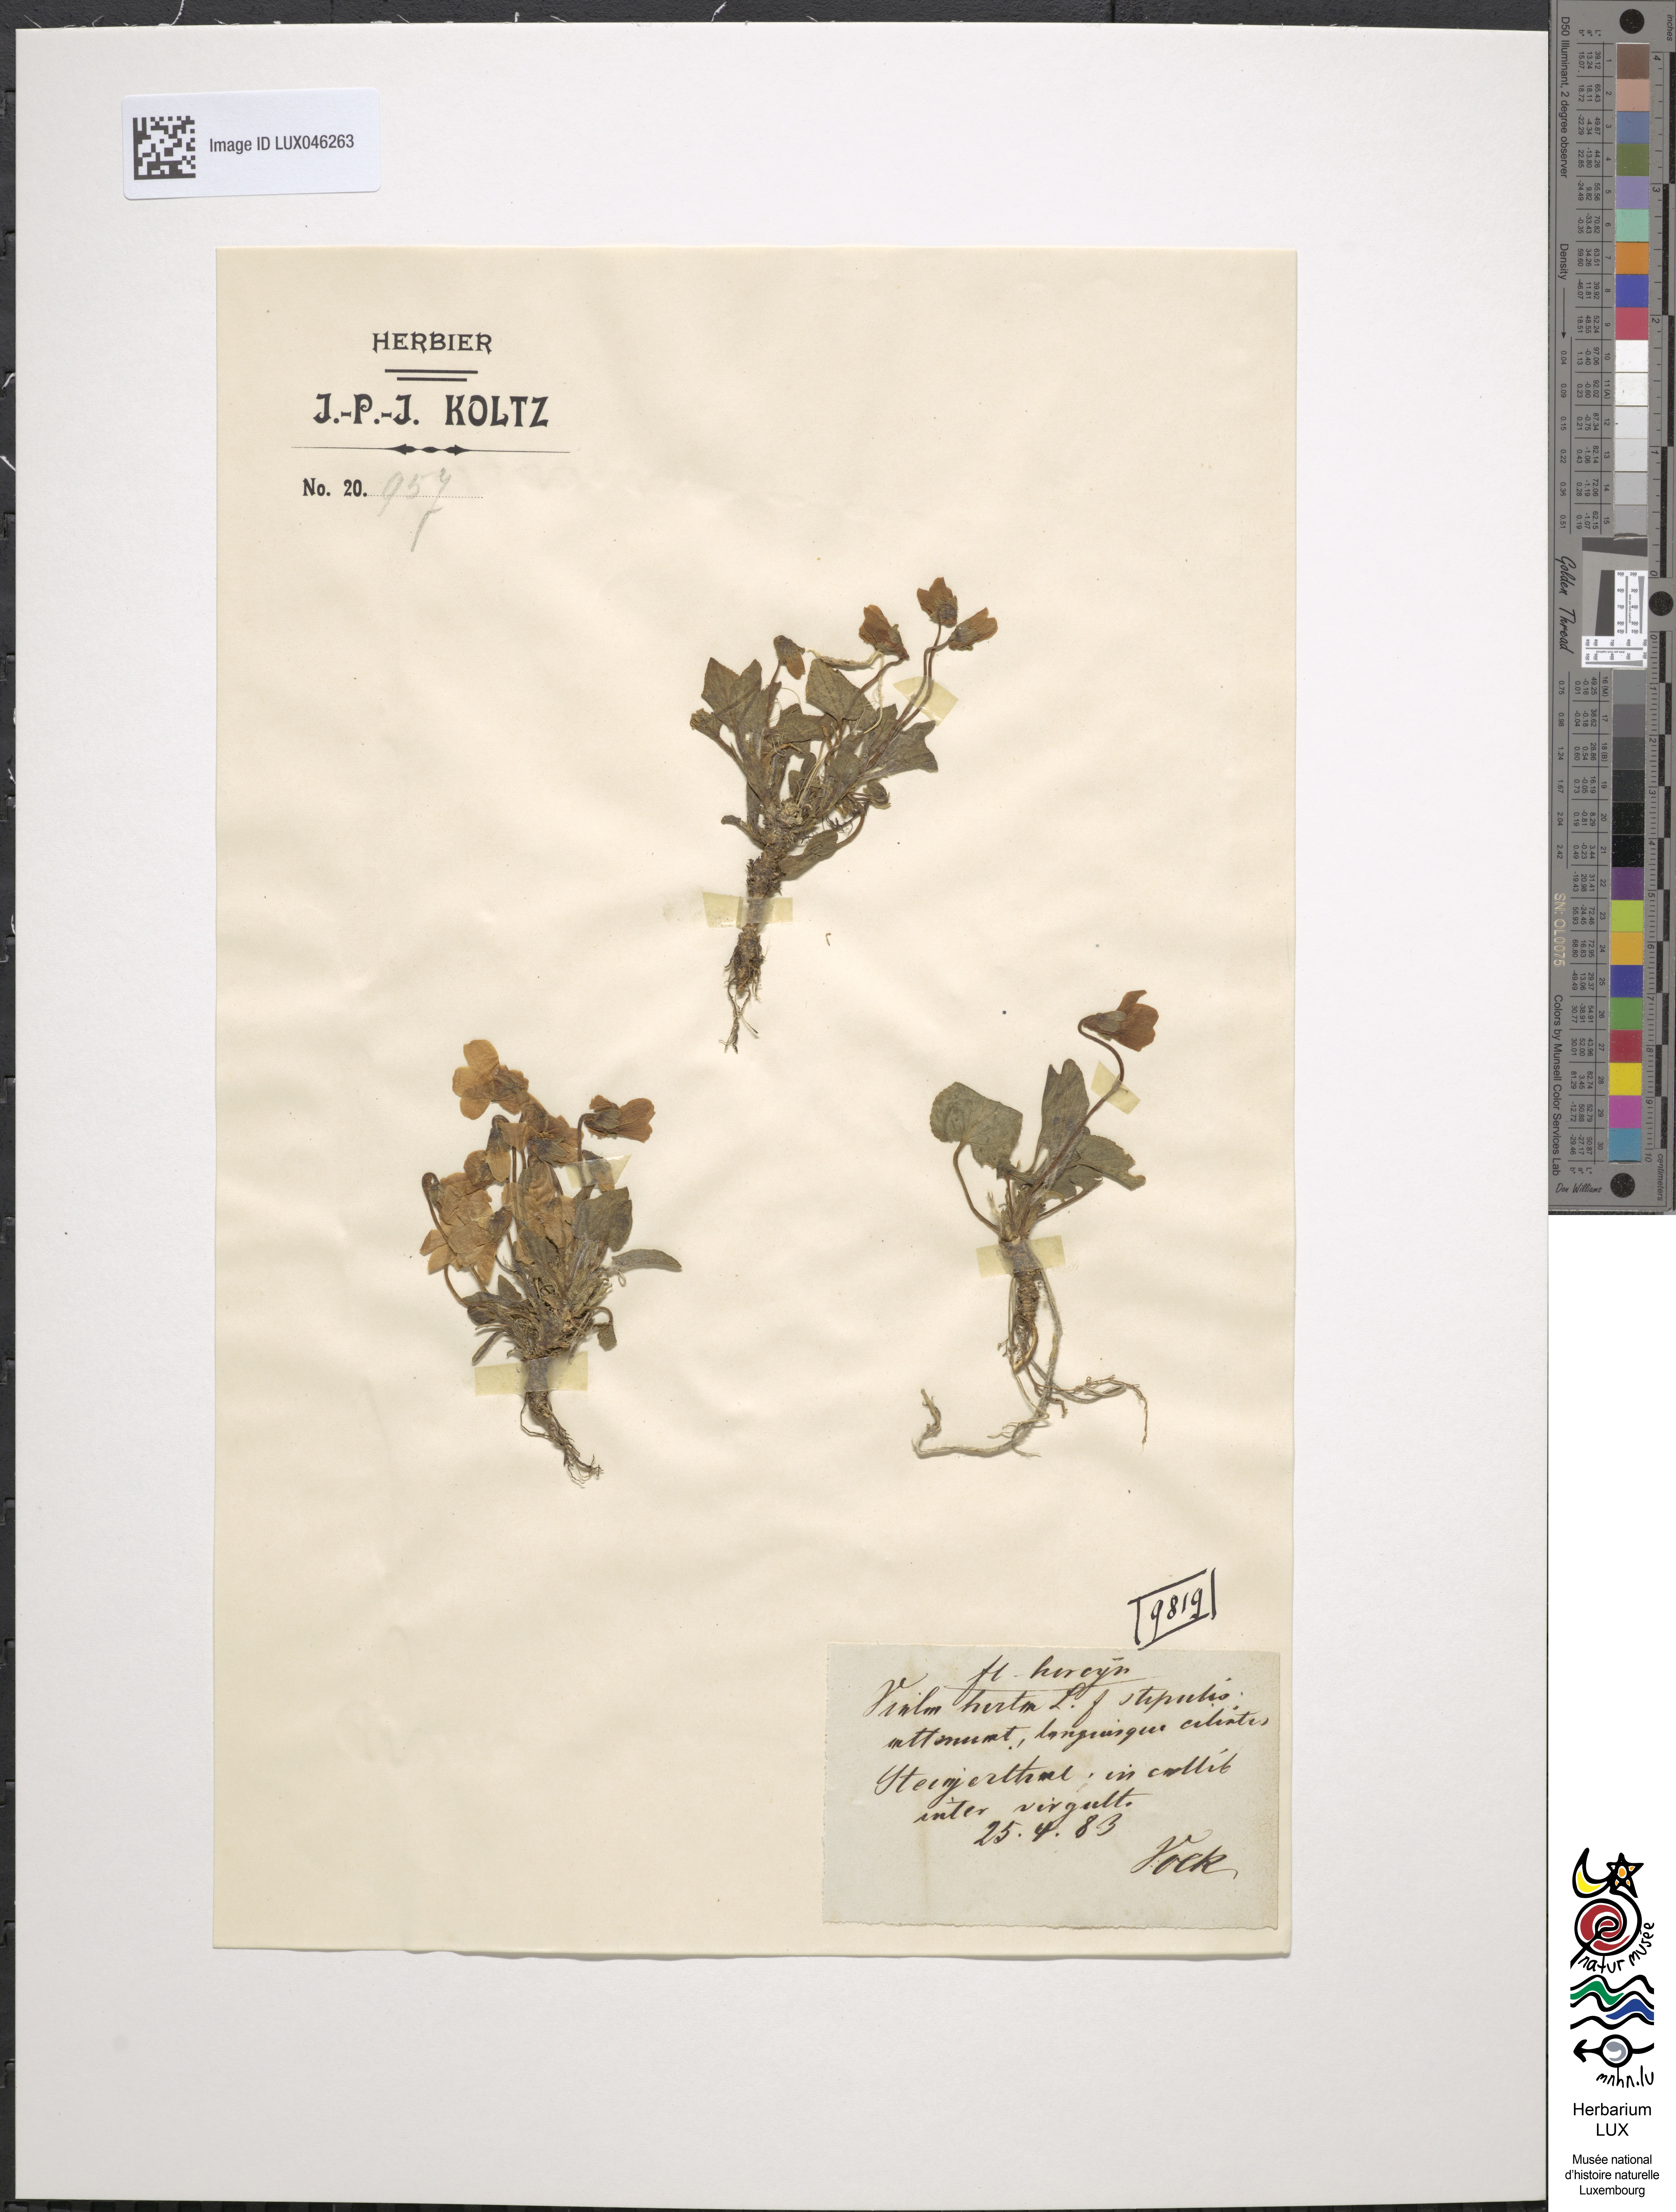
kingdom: Plantae
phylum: Tracheophyta
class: Magnoliopsida
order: Malpighiales
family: Violaceae
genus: Viola
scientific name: Viola hirta
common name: Hairy violet
